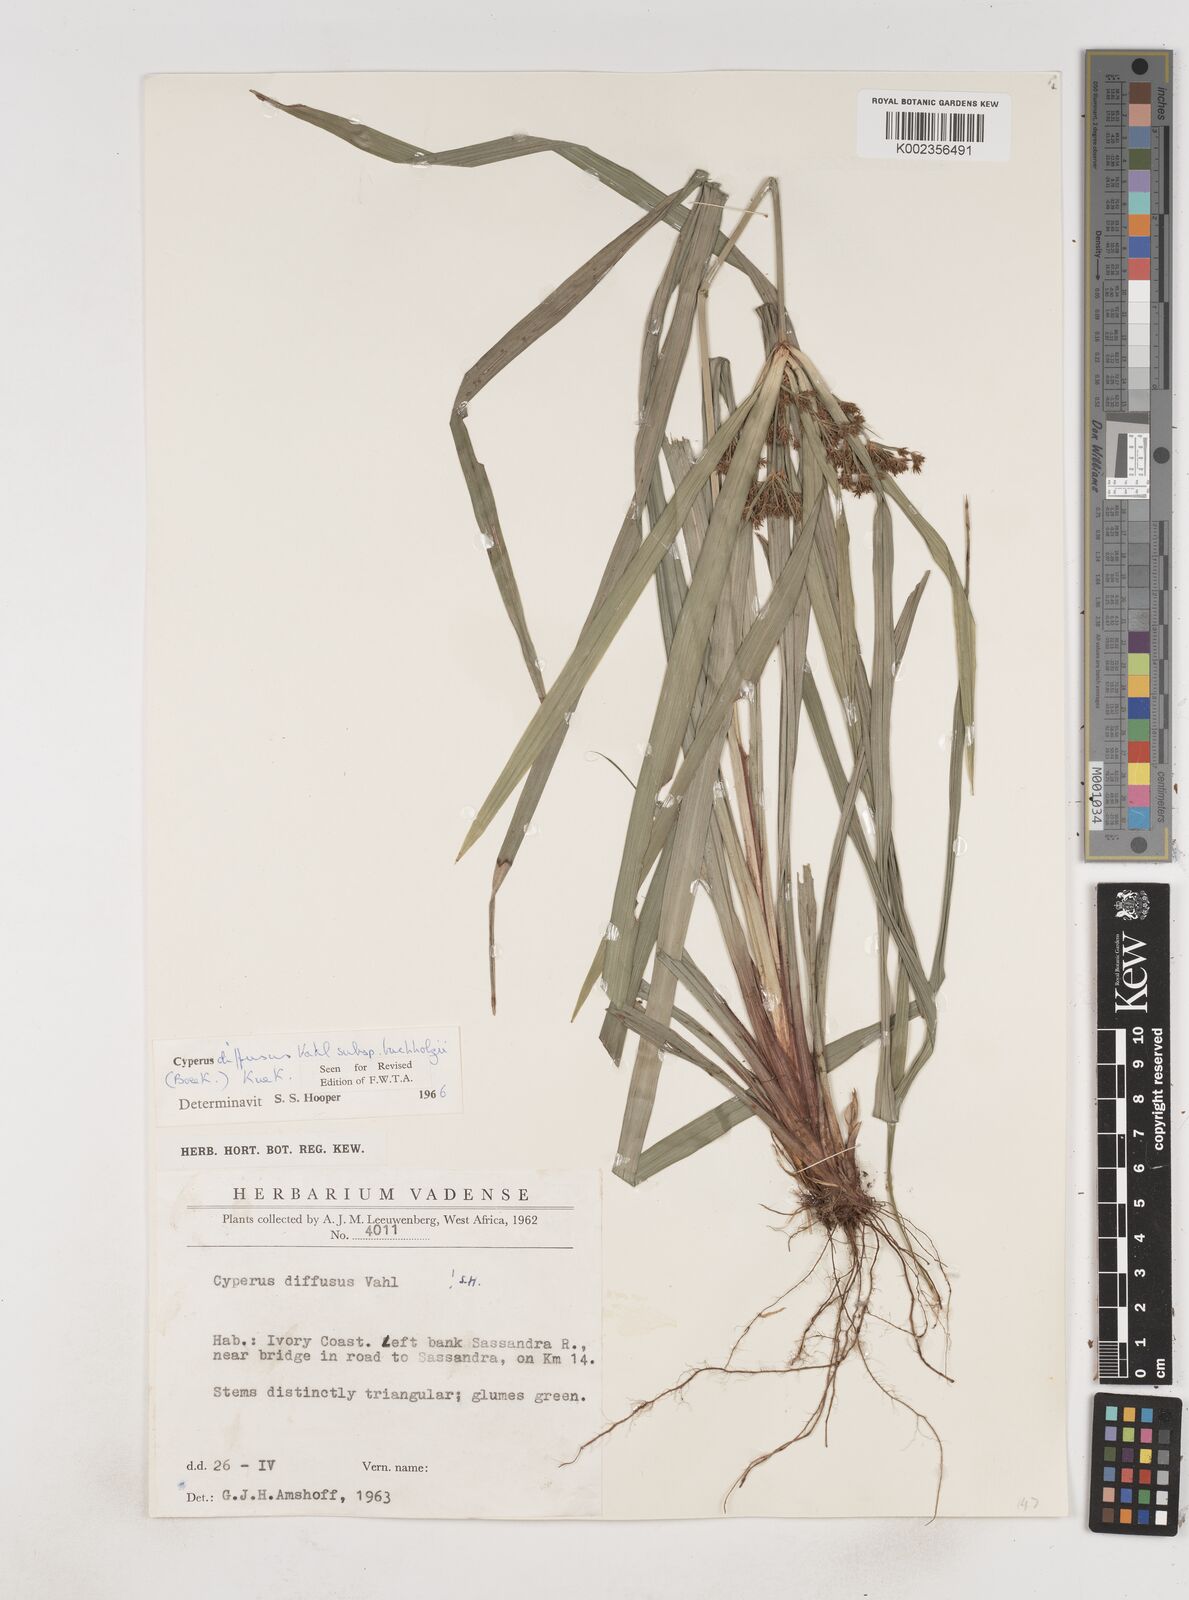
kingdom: Plantae
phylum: Tracheophyta
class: Liliopsida
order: Poales
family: Cyperaceae
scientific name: Cyperaceae
